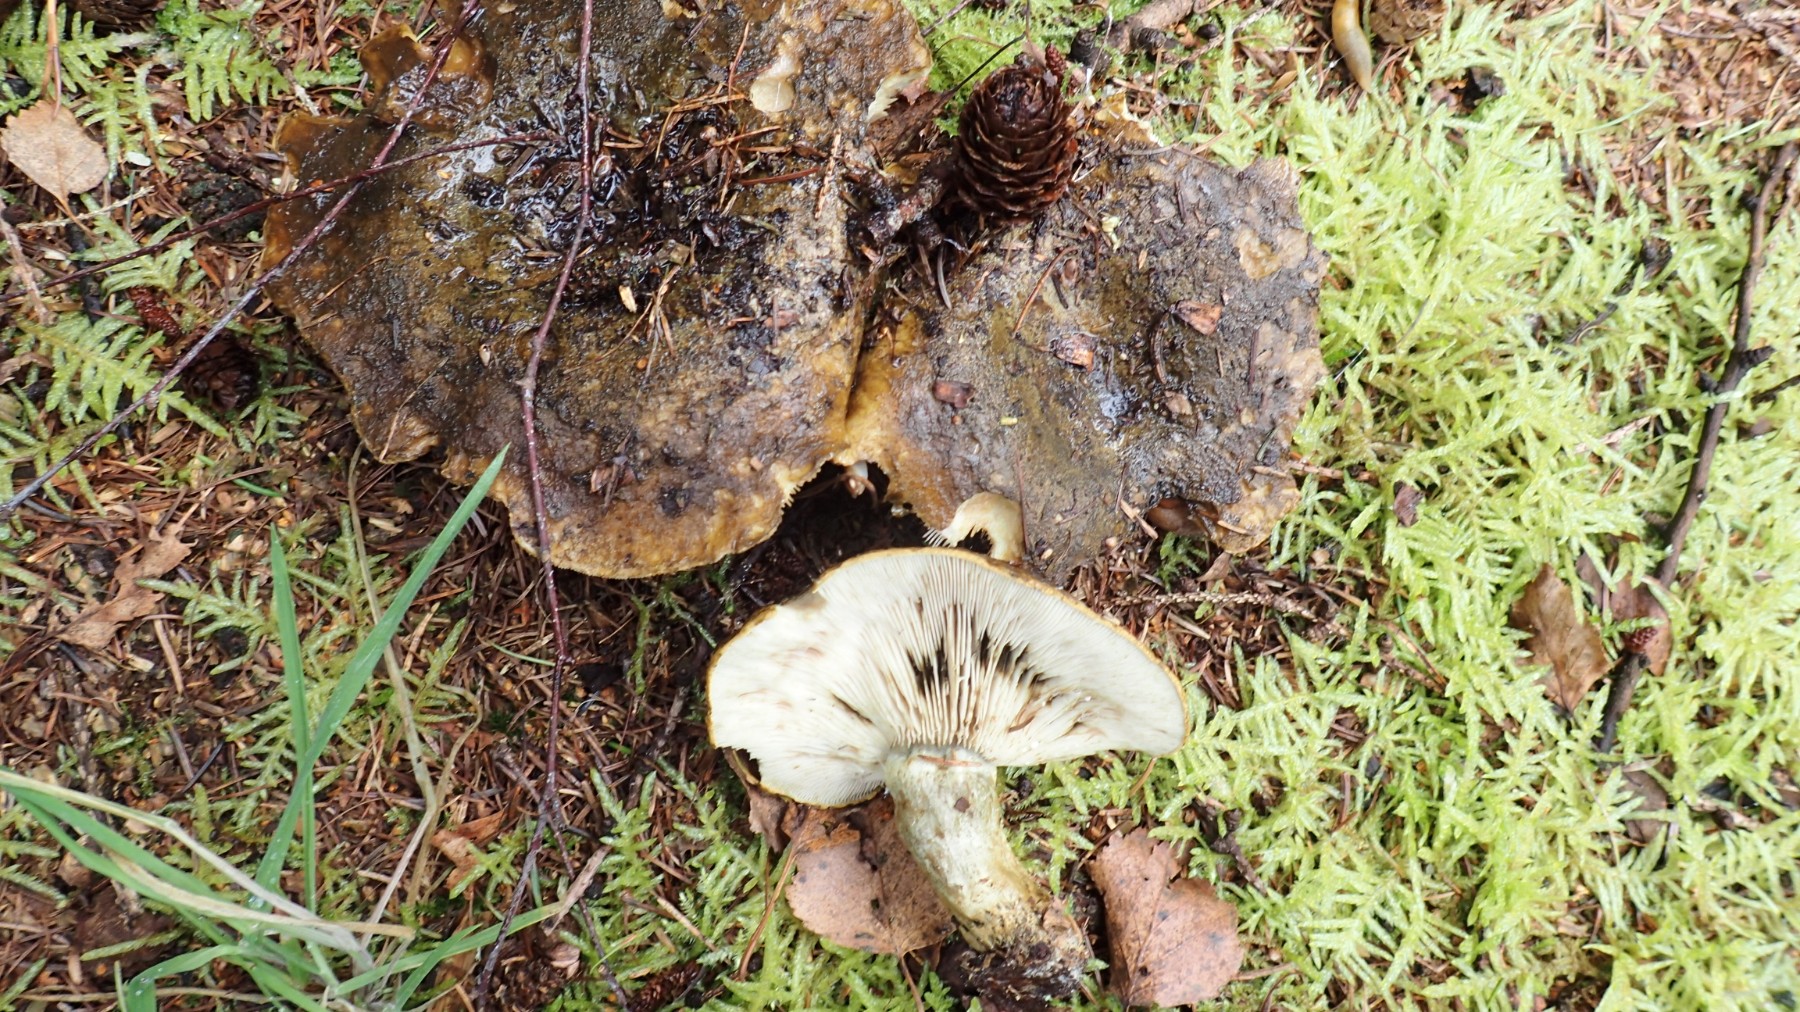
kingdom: Fungi
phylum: Basidiomycota
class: Agaricomycetes
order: Russulales
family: Russulaceae
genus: Lactarius
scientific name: Lactarius necator
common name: manddraber-mælkehat
